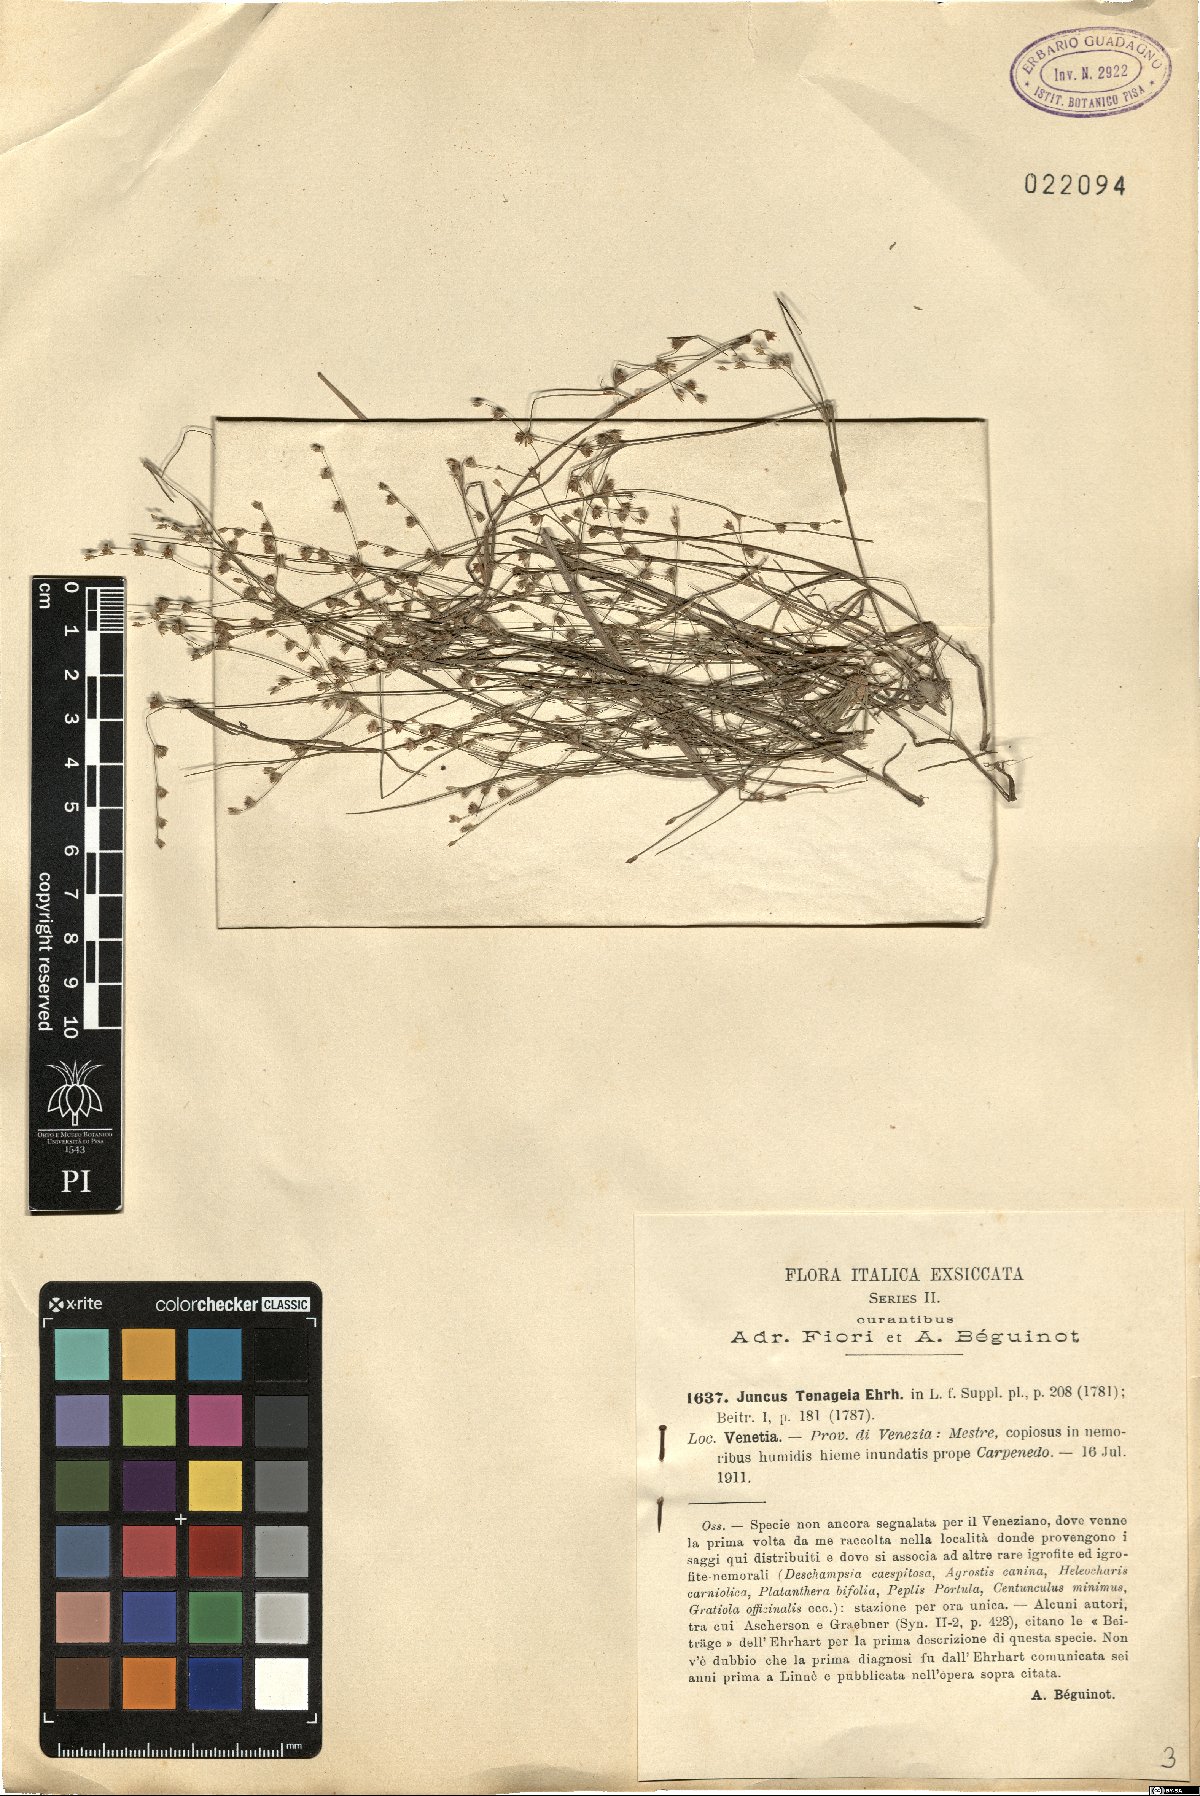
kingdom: Plantae
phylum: Tracheophyta
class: Liliopsida
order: Poales
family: Juncaceae
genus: Juncus
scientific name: Juncus tenageia
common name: Sand rush
